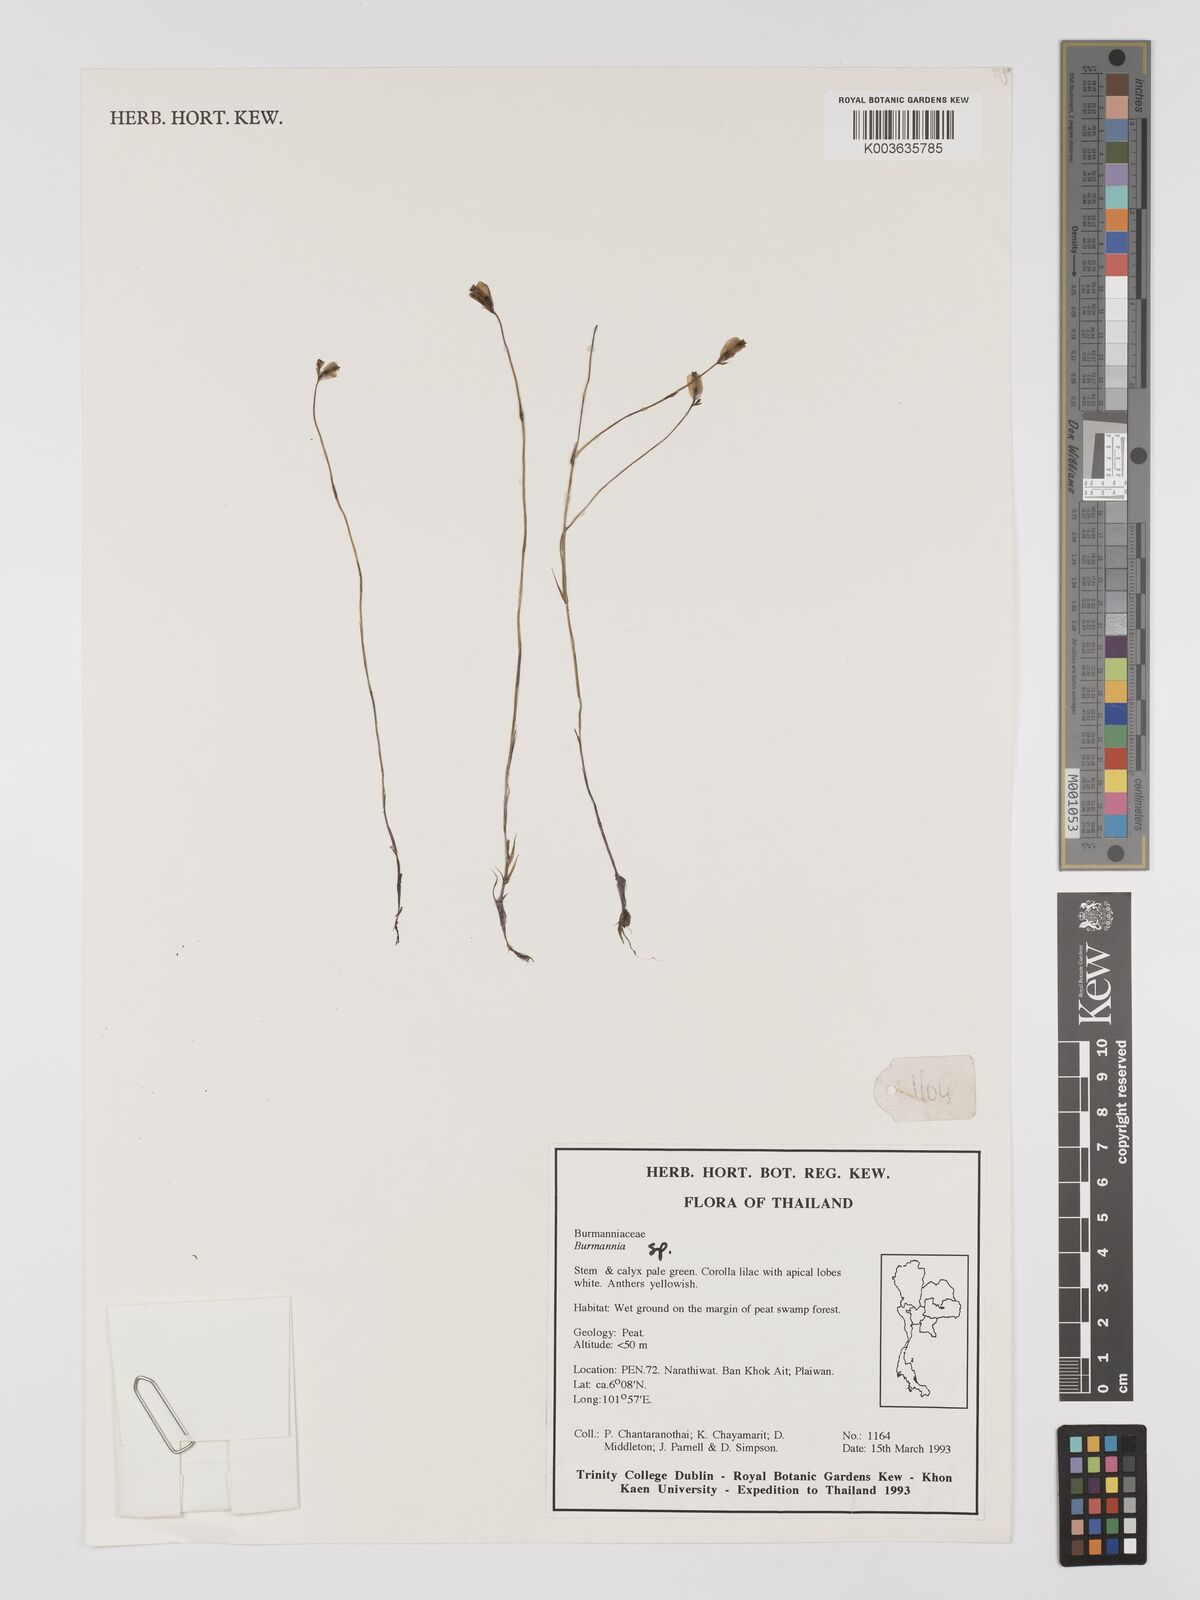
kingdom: Plantae
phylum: Tracheophyta
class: Liliopsida
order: Dioscoreales
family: Burmanniaceae
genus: Burmannia
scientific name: Burmannia
